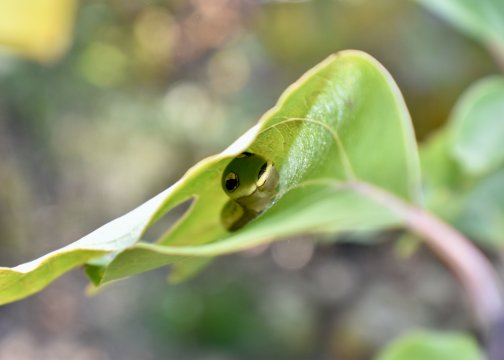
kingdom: Animalia
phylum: Arthropoda
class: Insecta
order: Lepidoptera
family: Papilionidae
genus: Pterourus
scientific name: Pterourus troilus
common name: Spicebush Swallowtail
